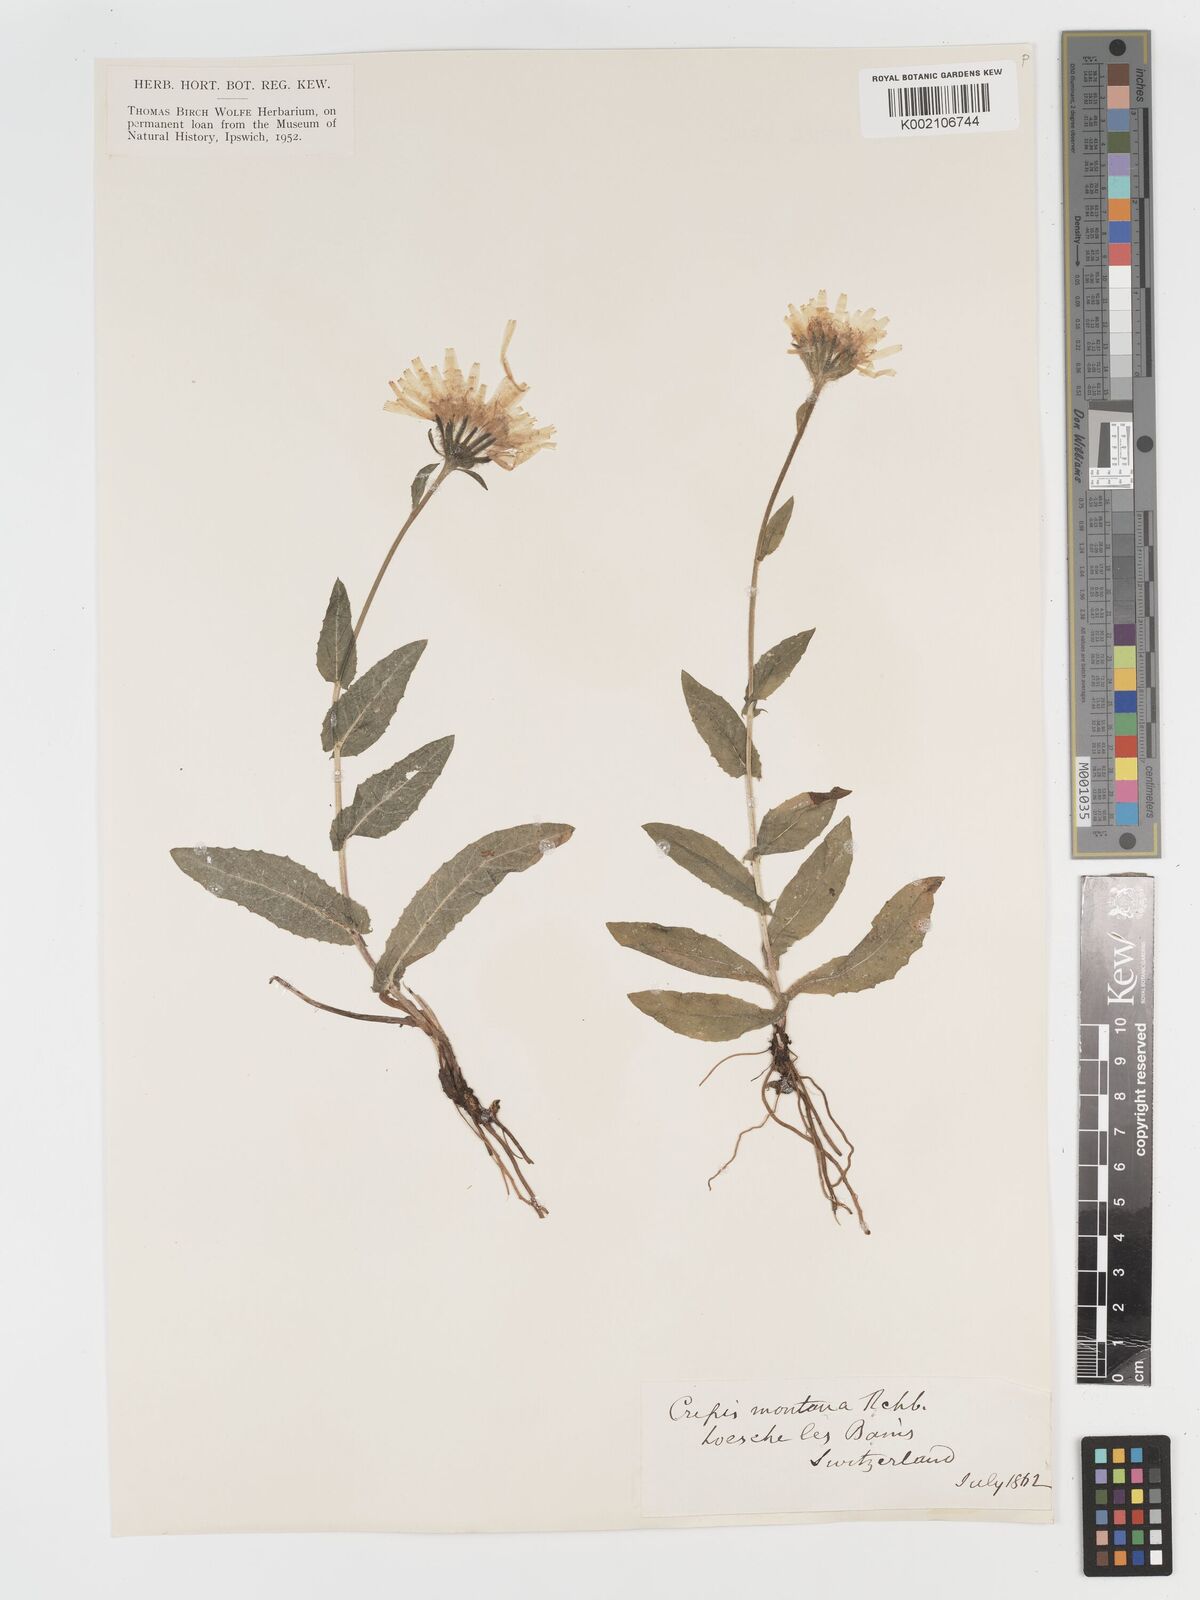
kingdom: Plantae
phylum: Tracheophyta
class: Magnoliopsida
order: Asterales
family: Asteraceae
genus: Crepis
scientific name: Crepis pontana
